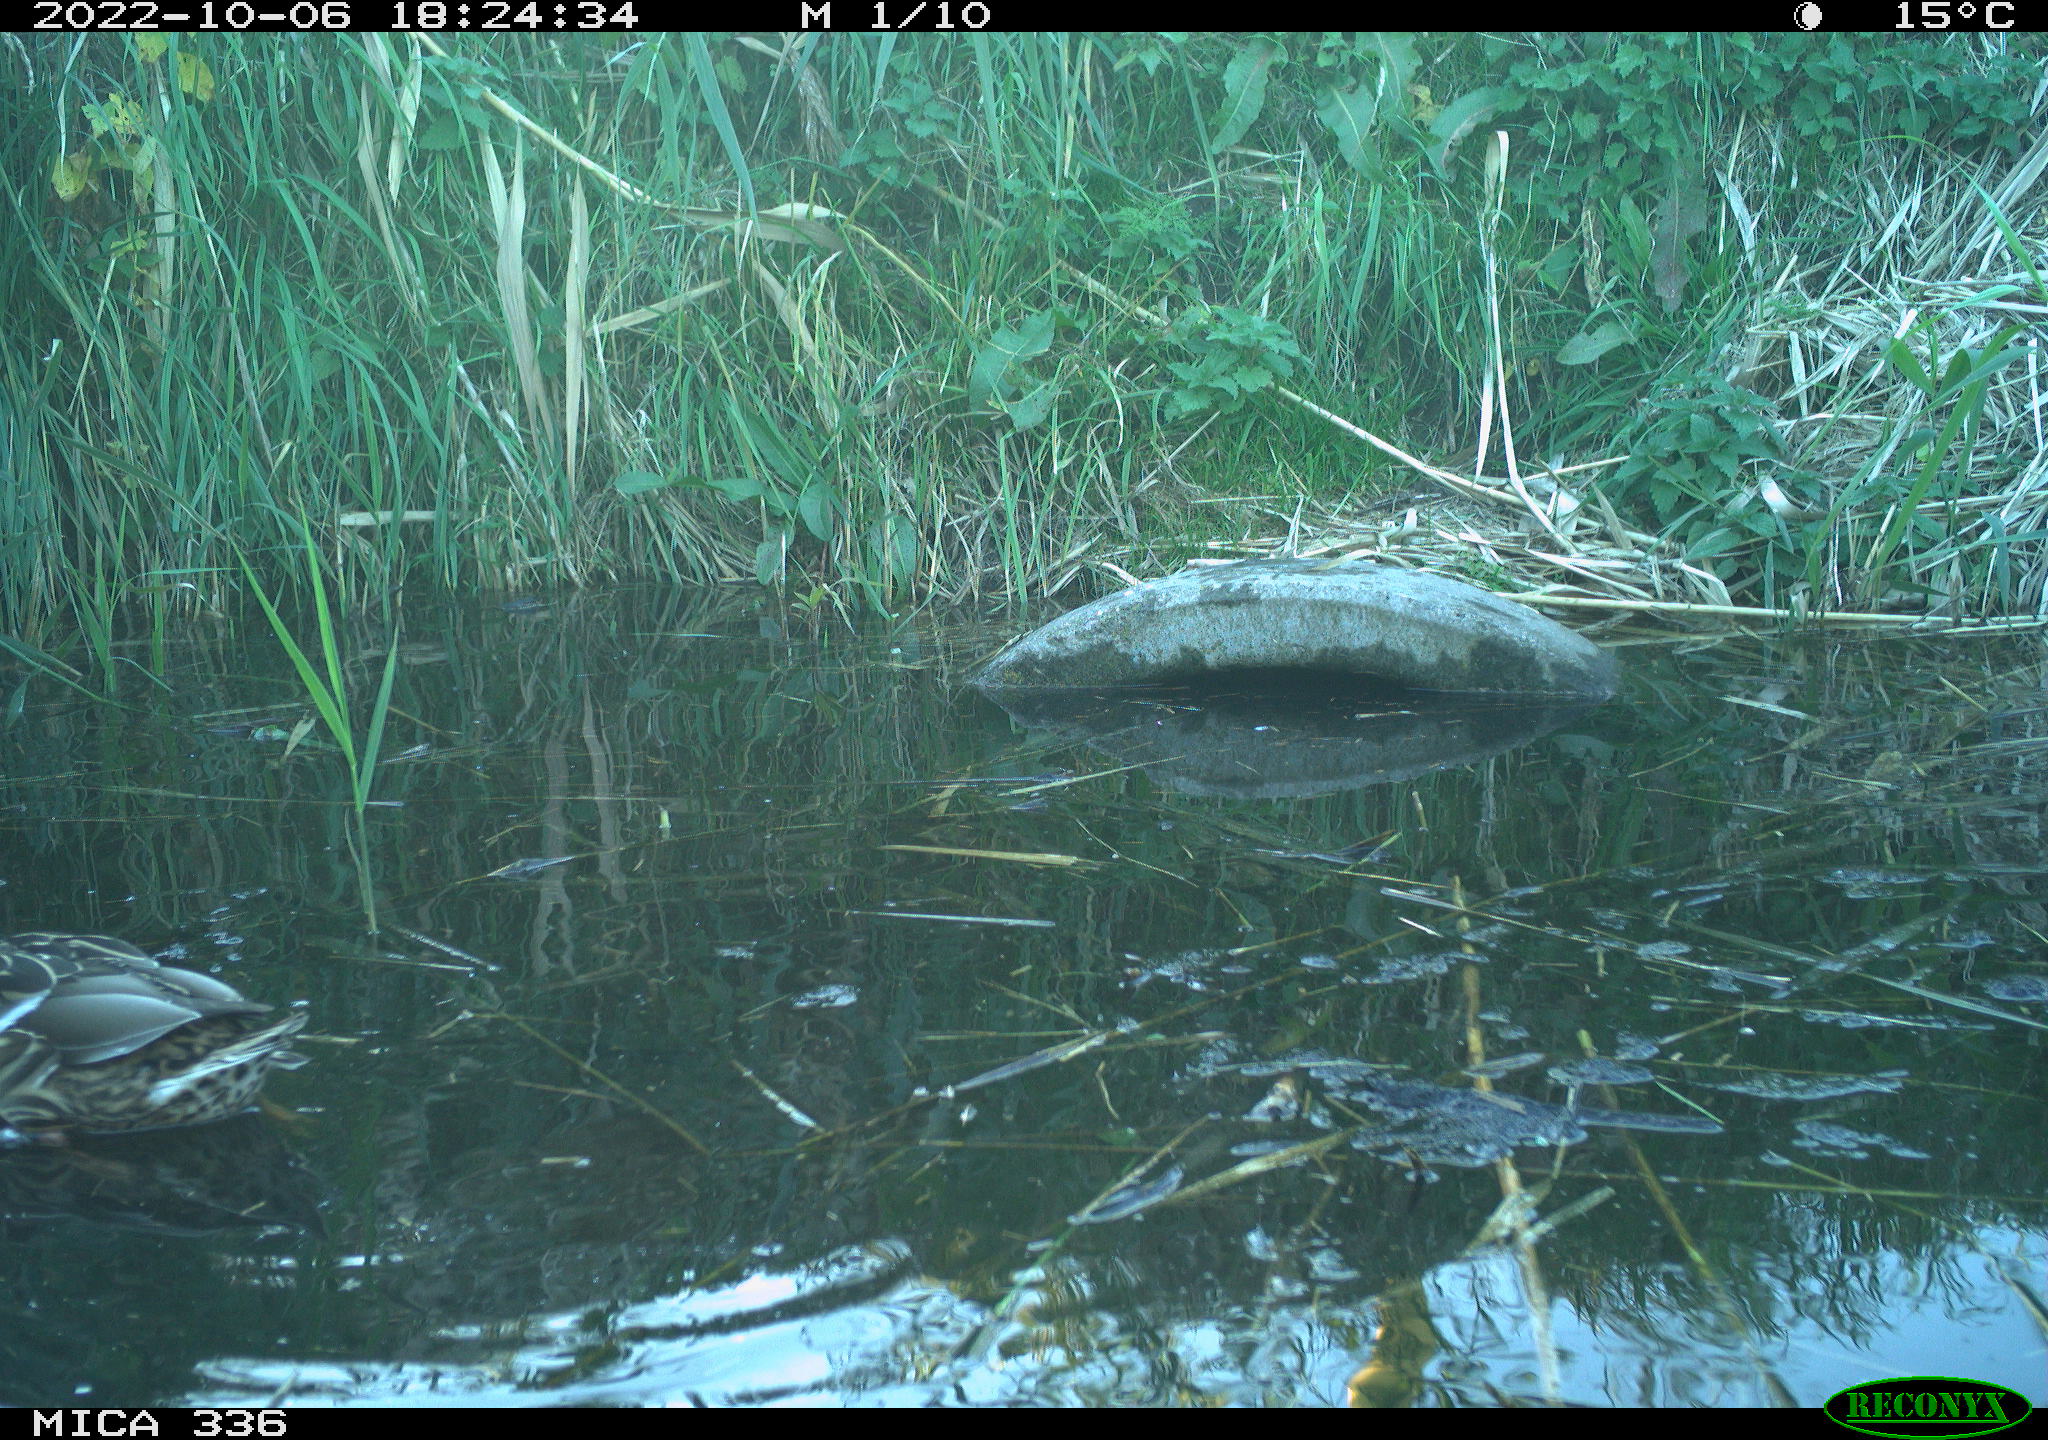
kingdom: Animalia
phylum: Chordata
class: Aves
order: Anseriformes
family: Anatidae
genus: Anas
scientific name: Anas platyrhynchos
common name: Mallard
